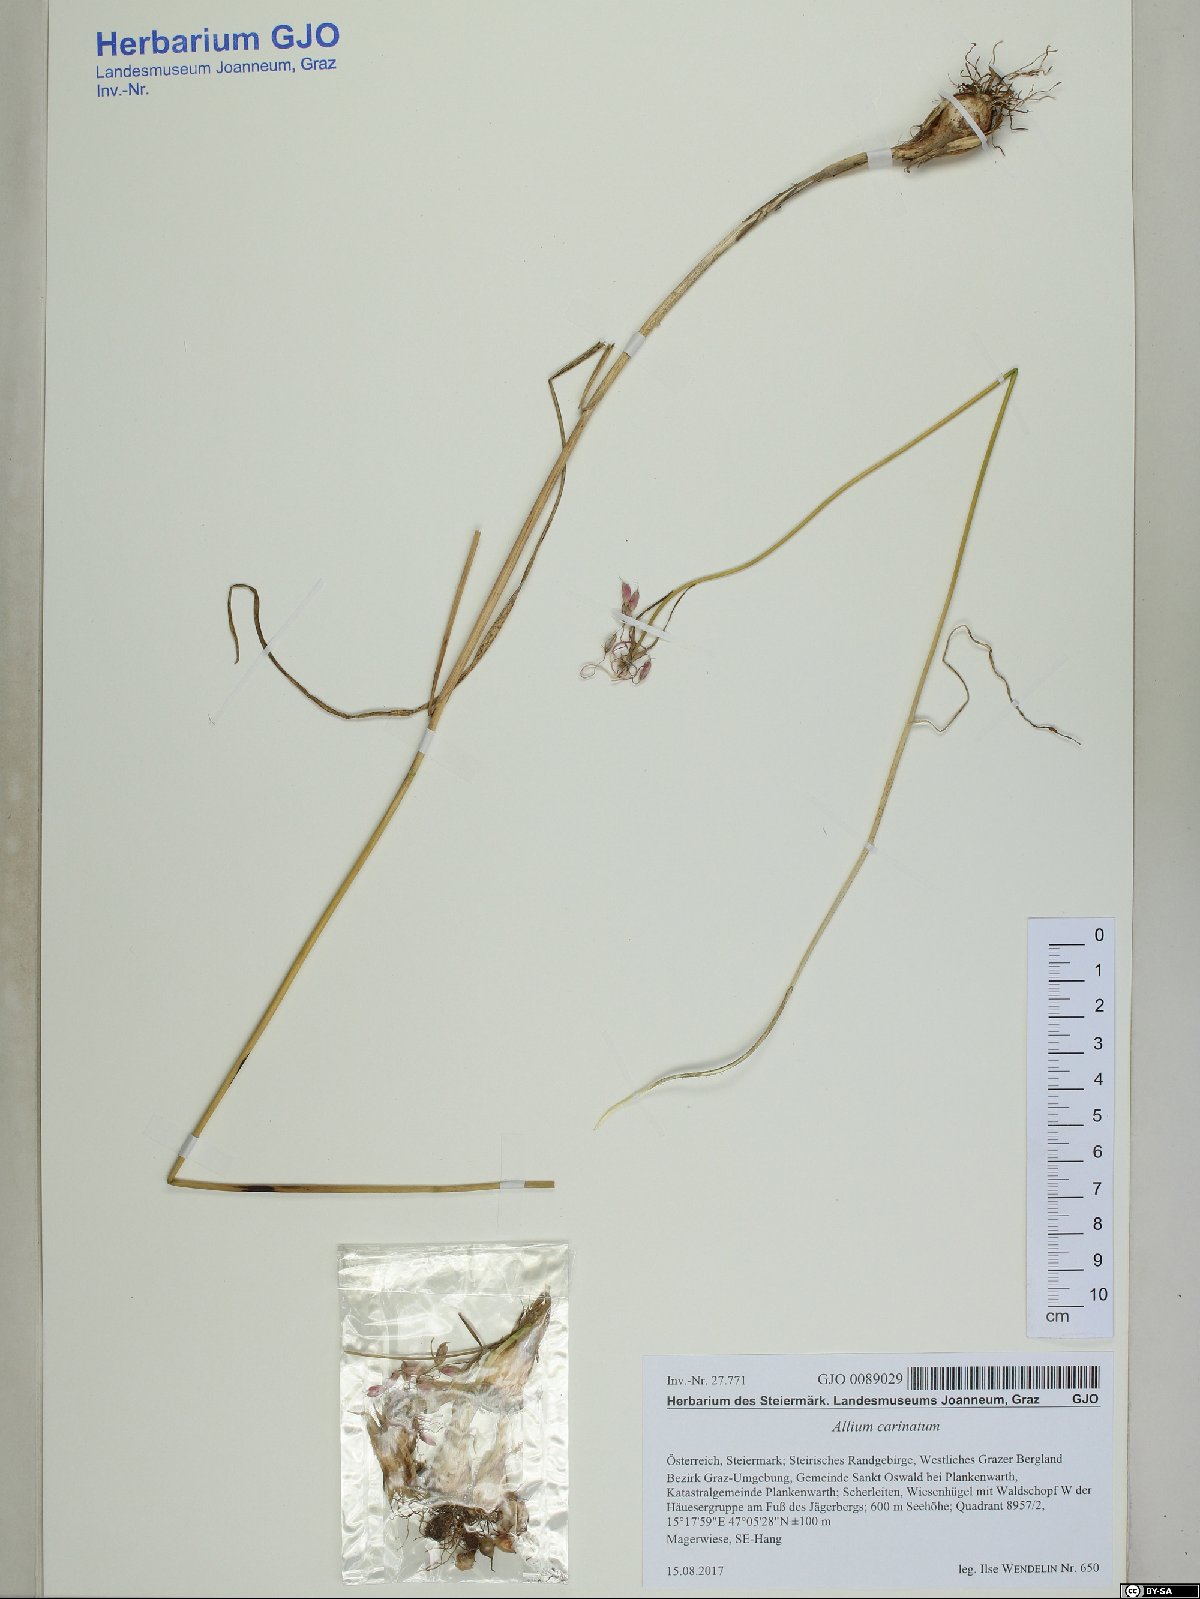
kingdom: Plantae
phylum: Tracheophyta
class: Liliopsida
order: Asparagales
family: Amaryllidaceae
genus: Allium
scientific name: Allium carinatum
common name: Keeled garlic
